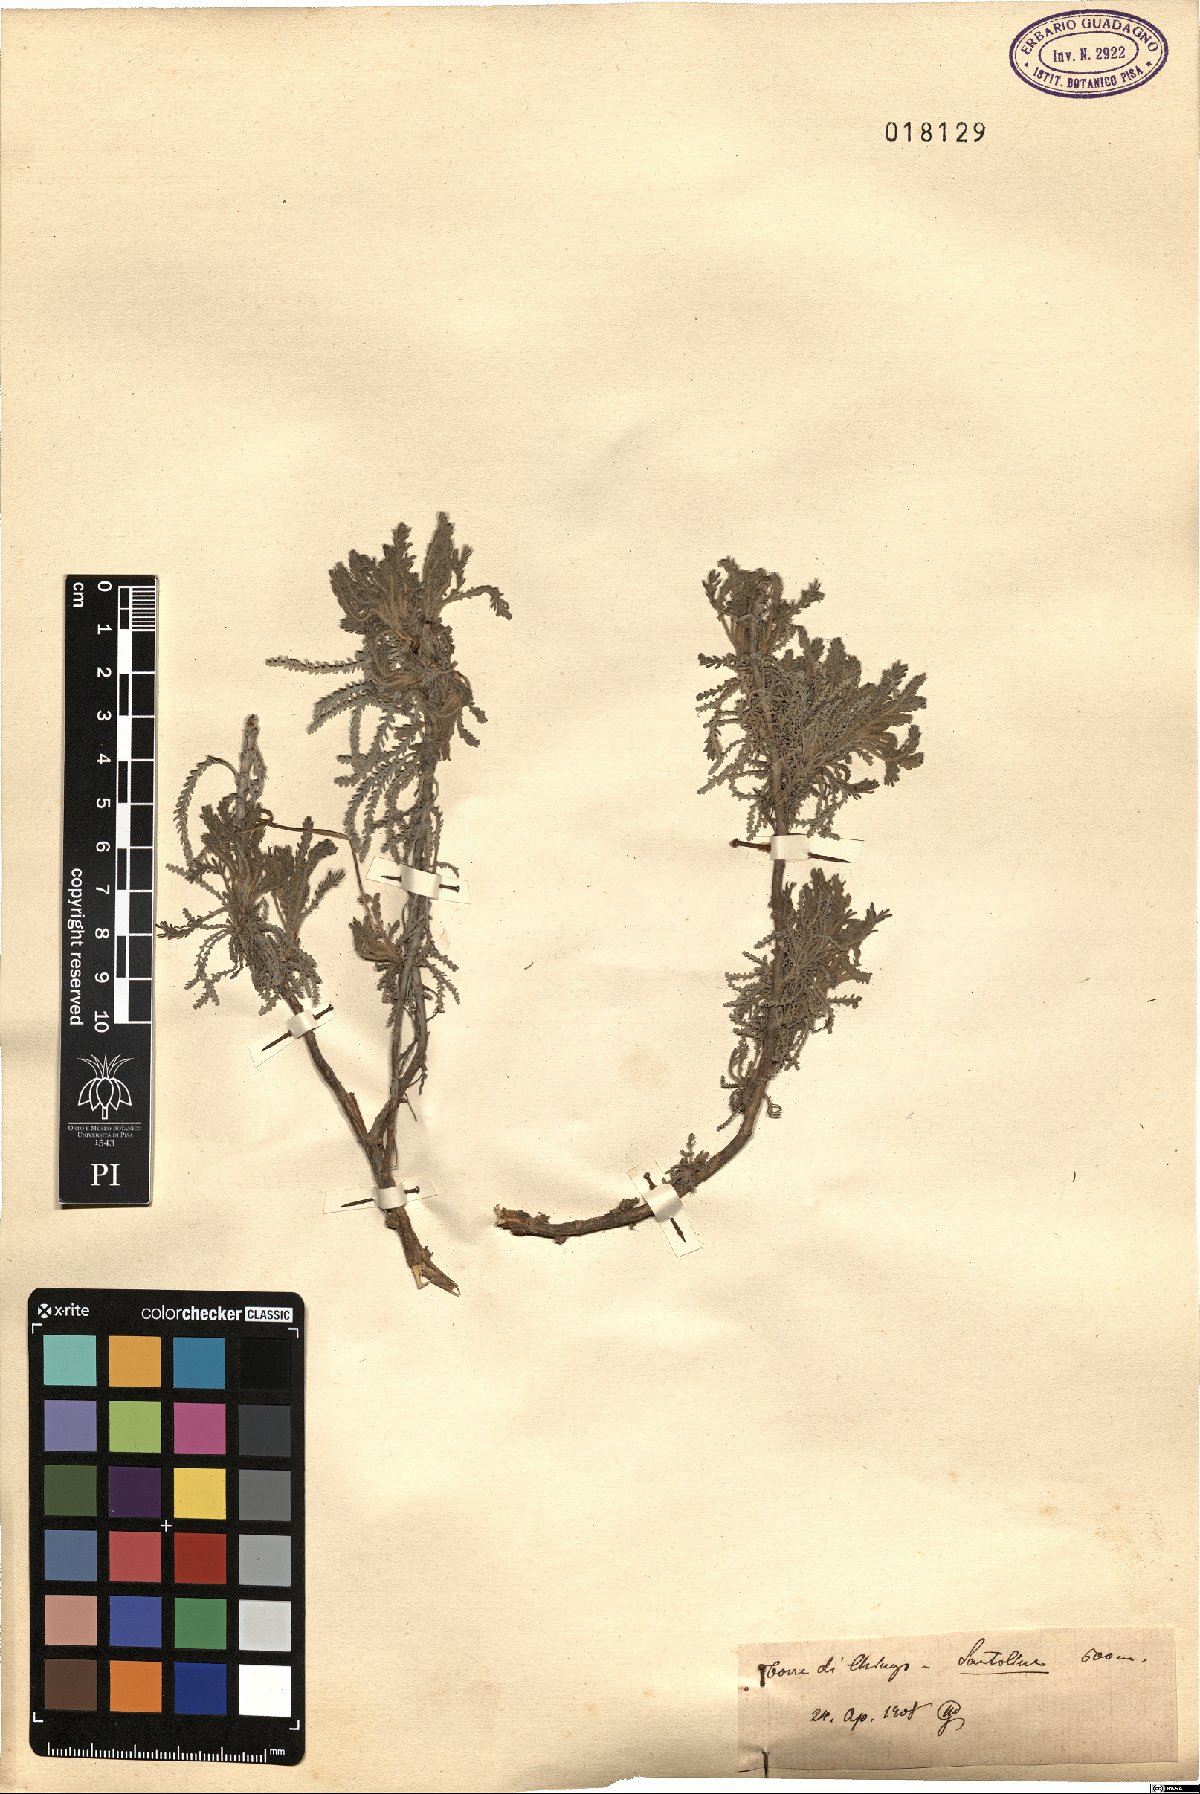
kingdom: Plantae
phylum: Tracheophyta
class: Magnoliopsida
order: Asterales
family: Asteraceae
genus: Santolina
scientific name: Santolina
